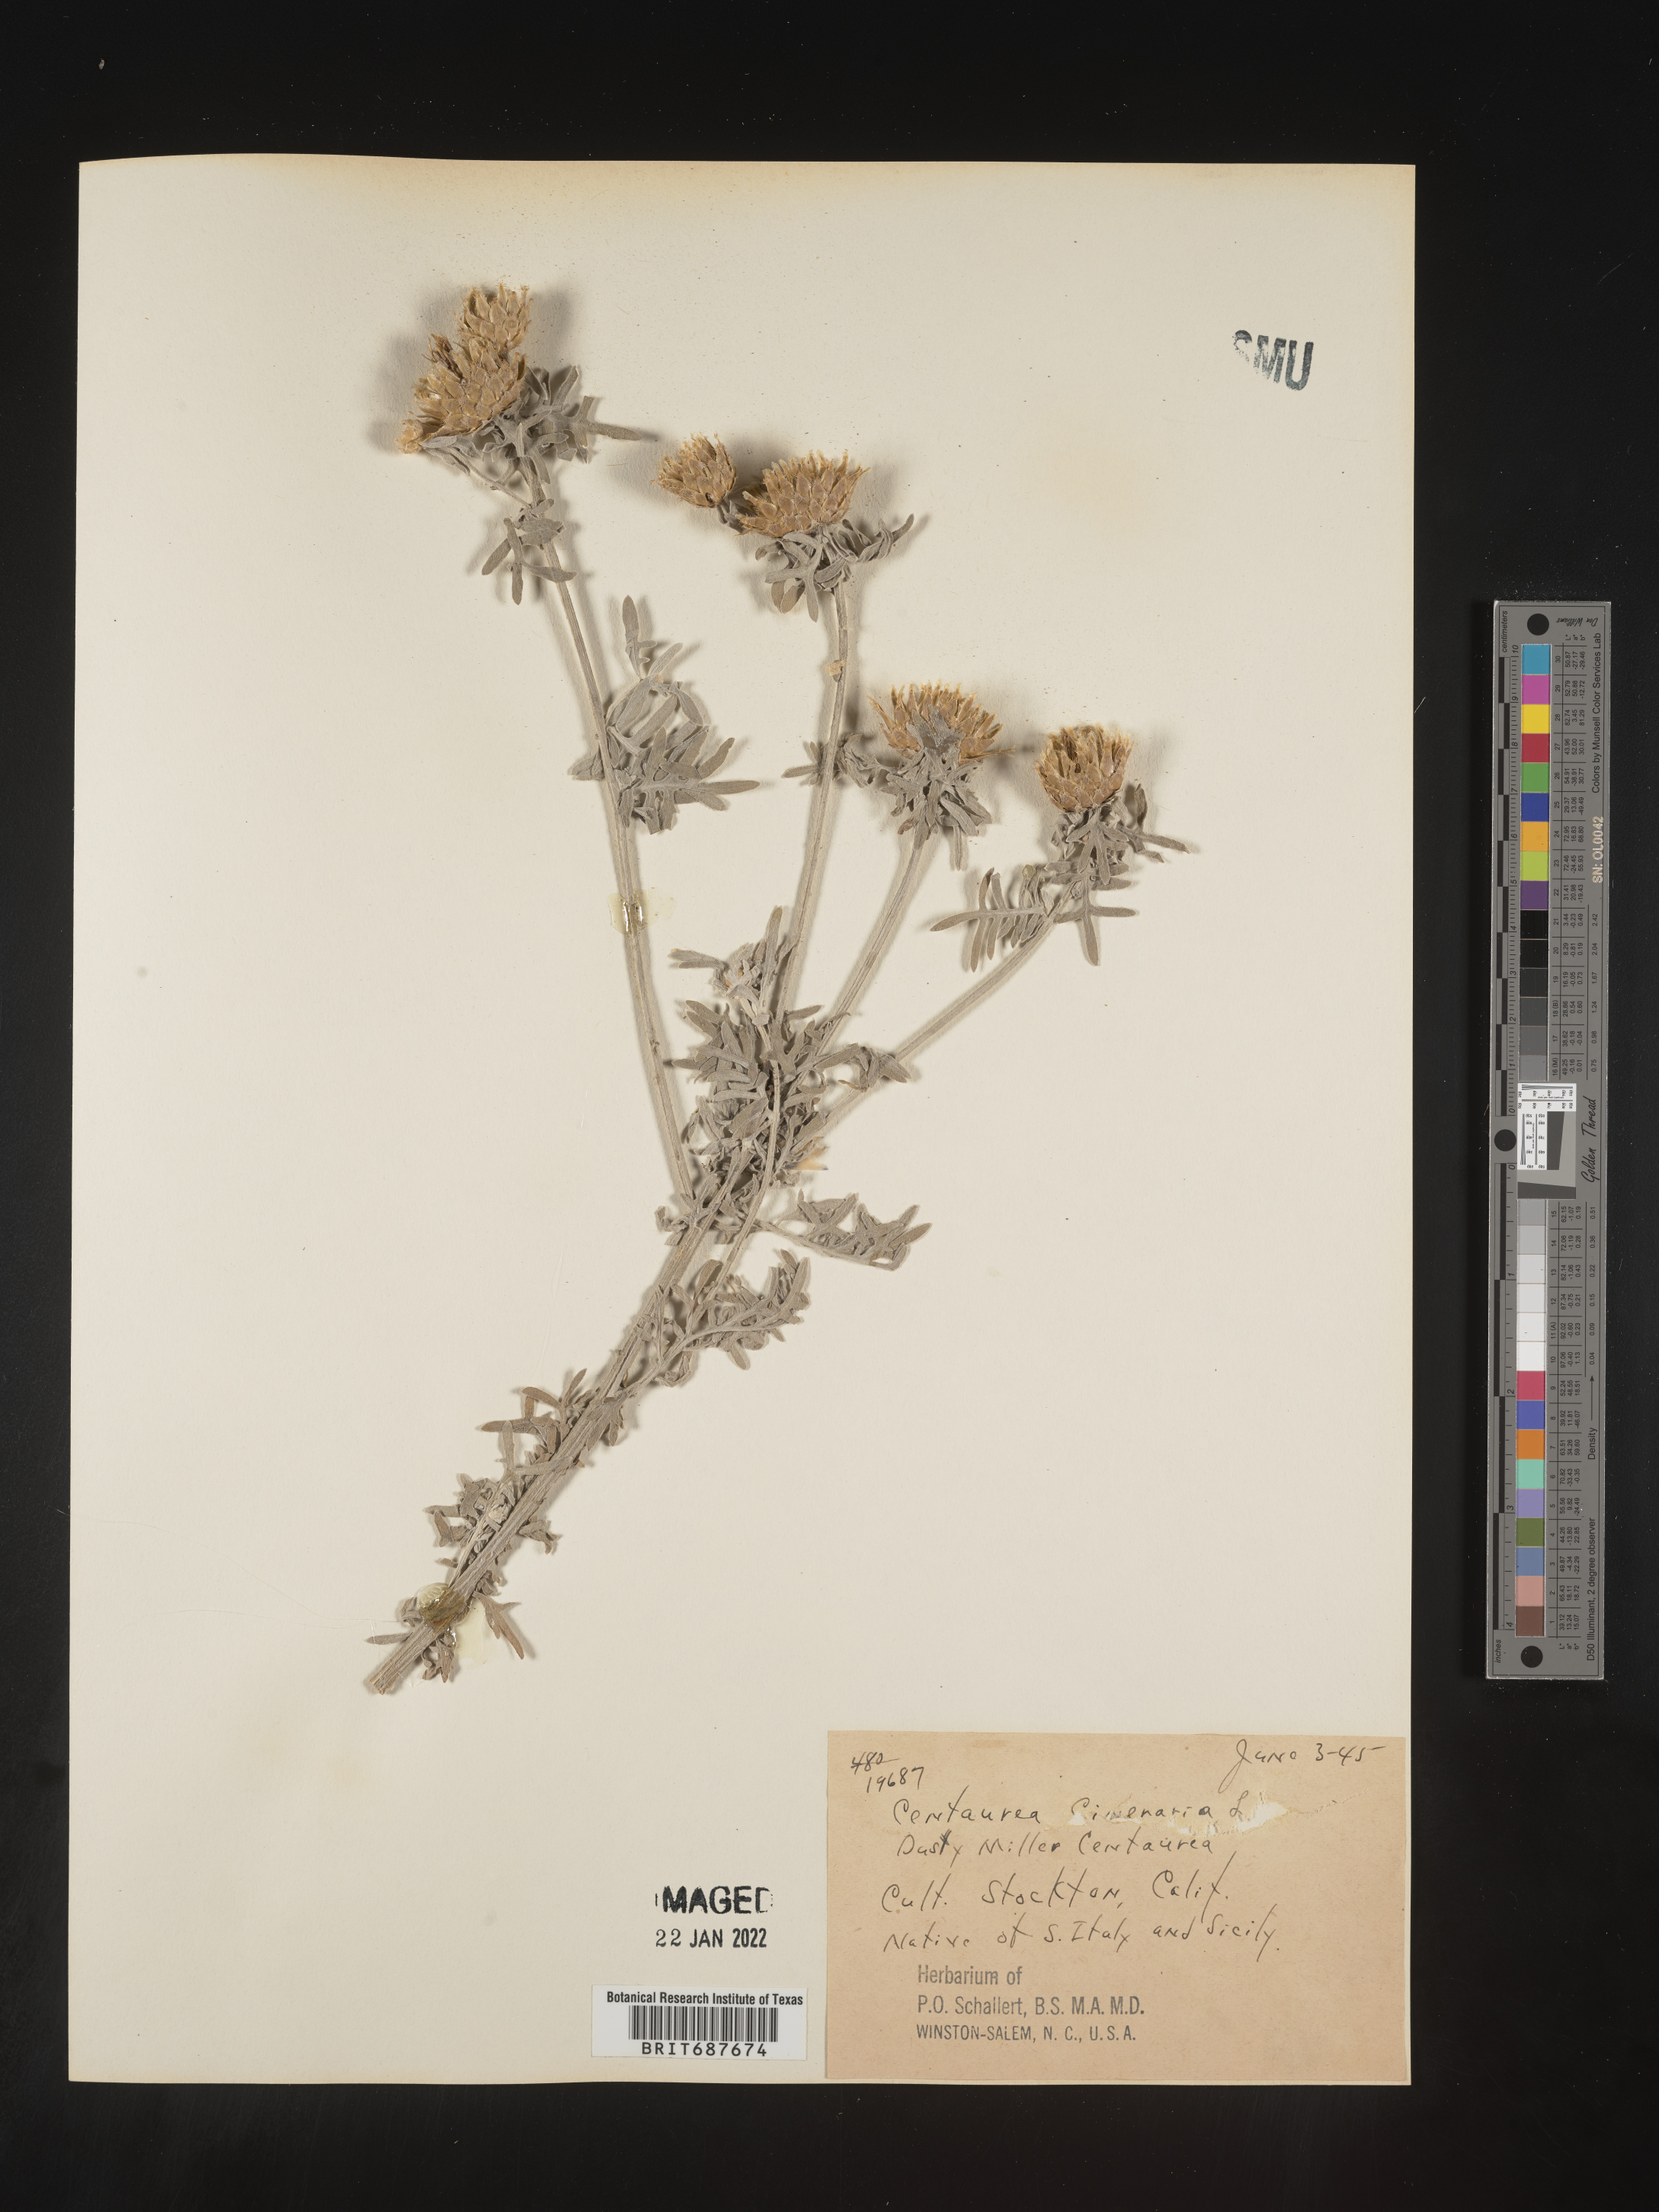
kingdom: Plantae
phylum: Tracheophyta
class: Magnoliopsida
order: Asterales
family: Asteraceae
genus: Centaurea
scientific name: Centaurea
